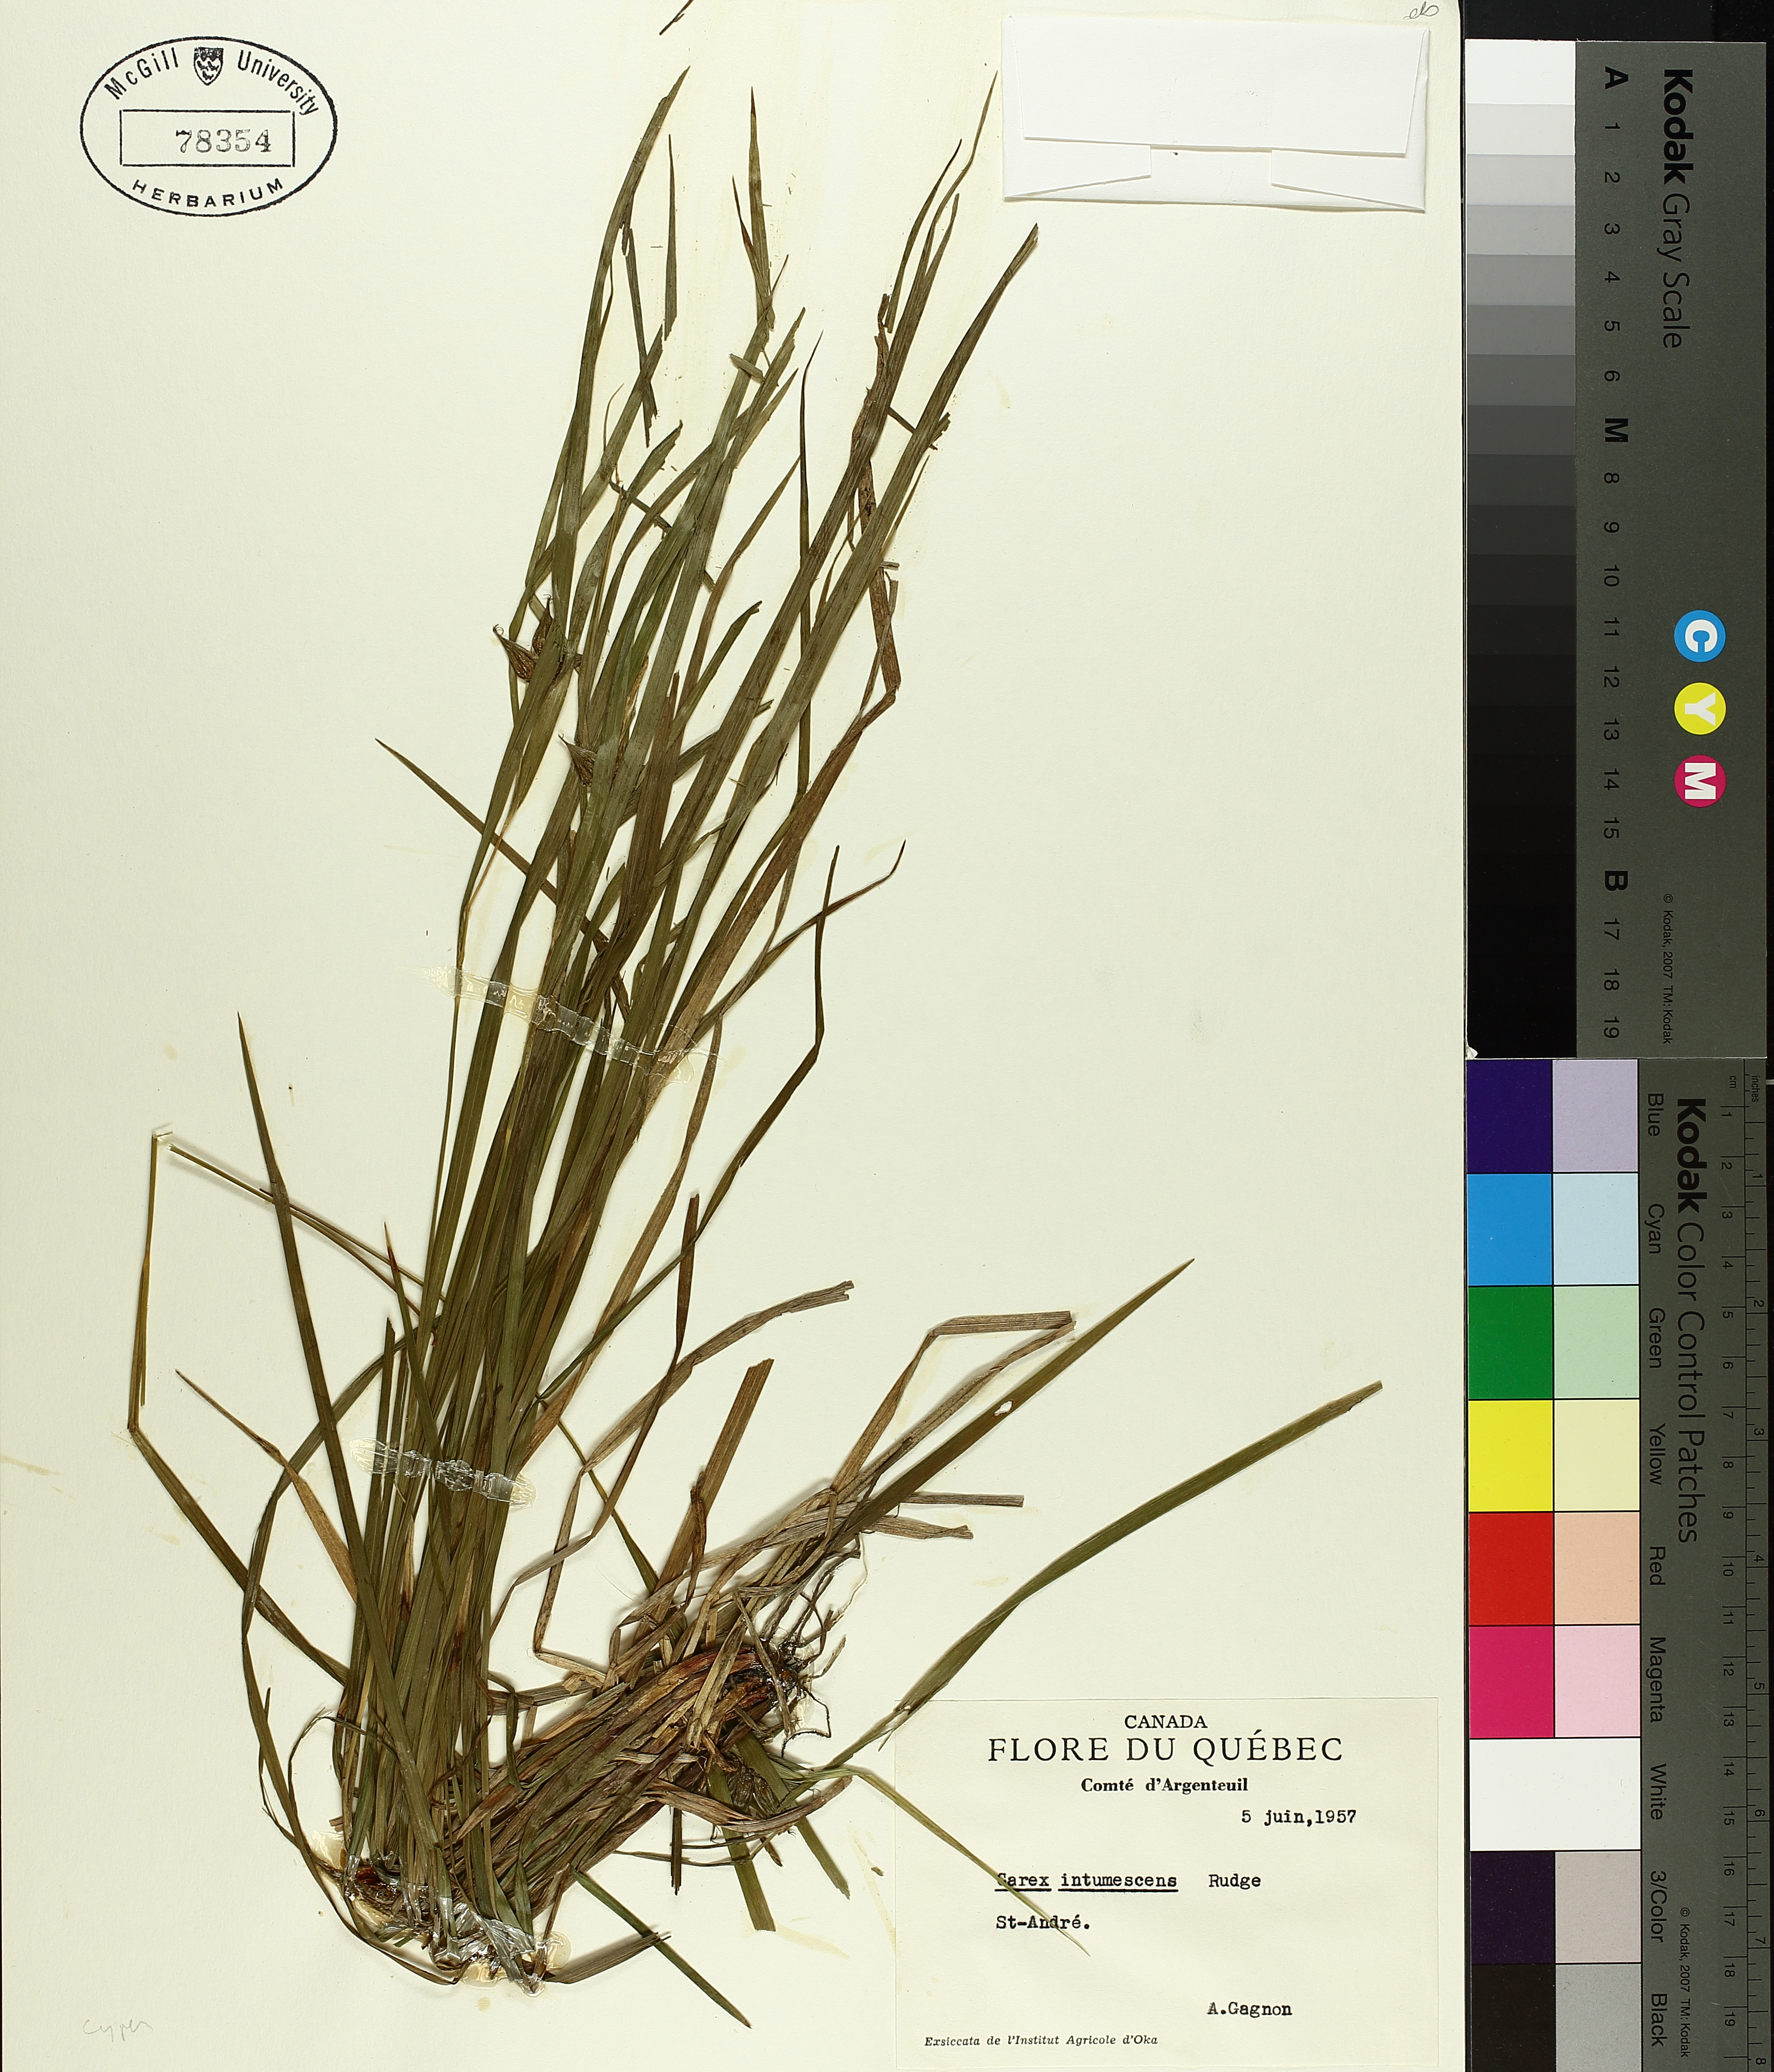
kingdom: Plantae
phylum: Tracheophyta
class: Liliopsida
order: Poales
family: Cyperaceae
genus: Carex
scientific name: Carex intumescens
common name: Greater bladder sedge
